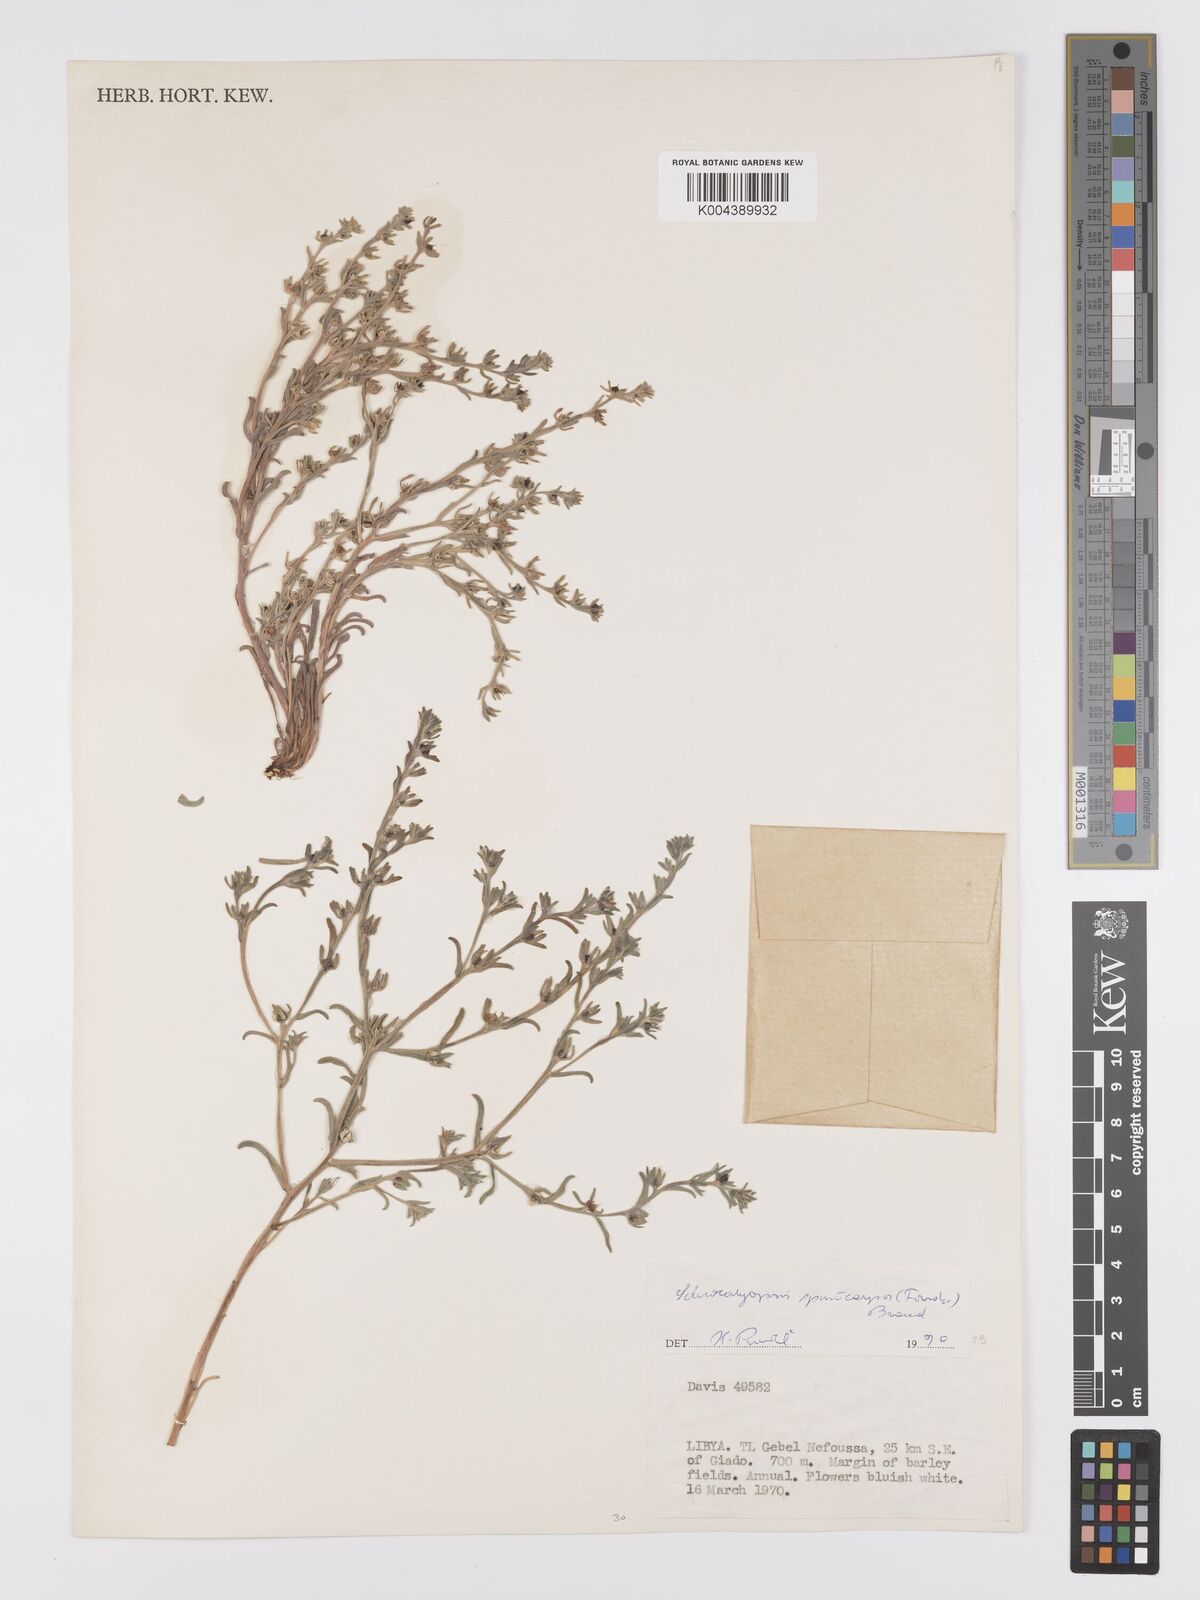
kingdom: Plantae
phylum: Tracheophyta
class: Magnoliopsida
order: Boraginales
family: Boraginaceae
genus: Lappula
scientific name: Lappula spinocarpos
